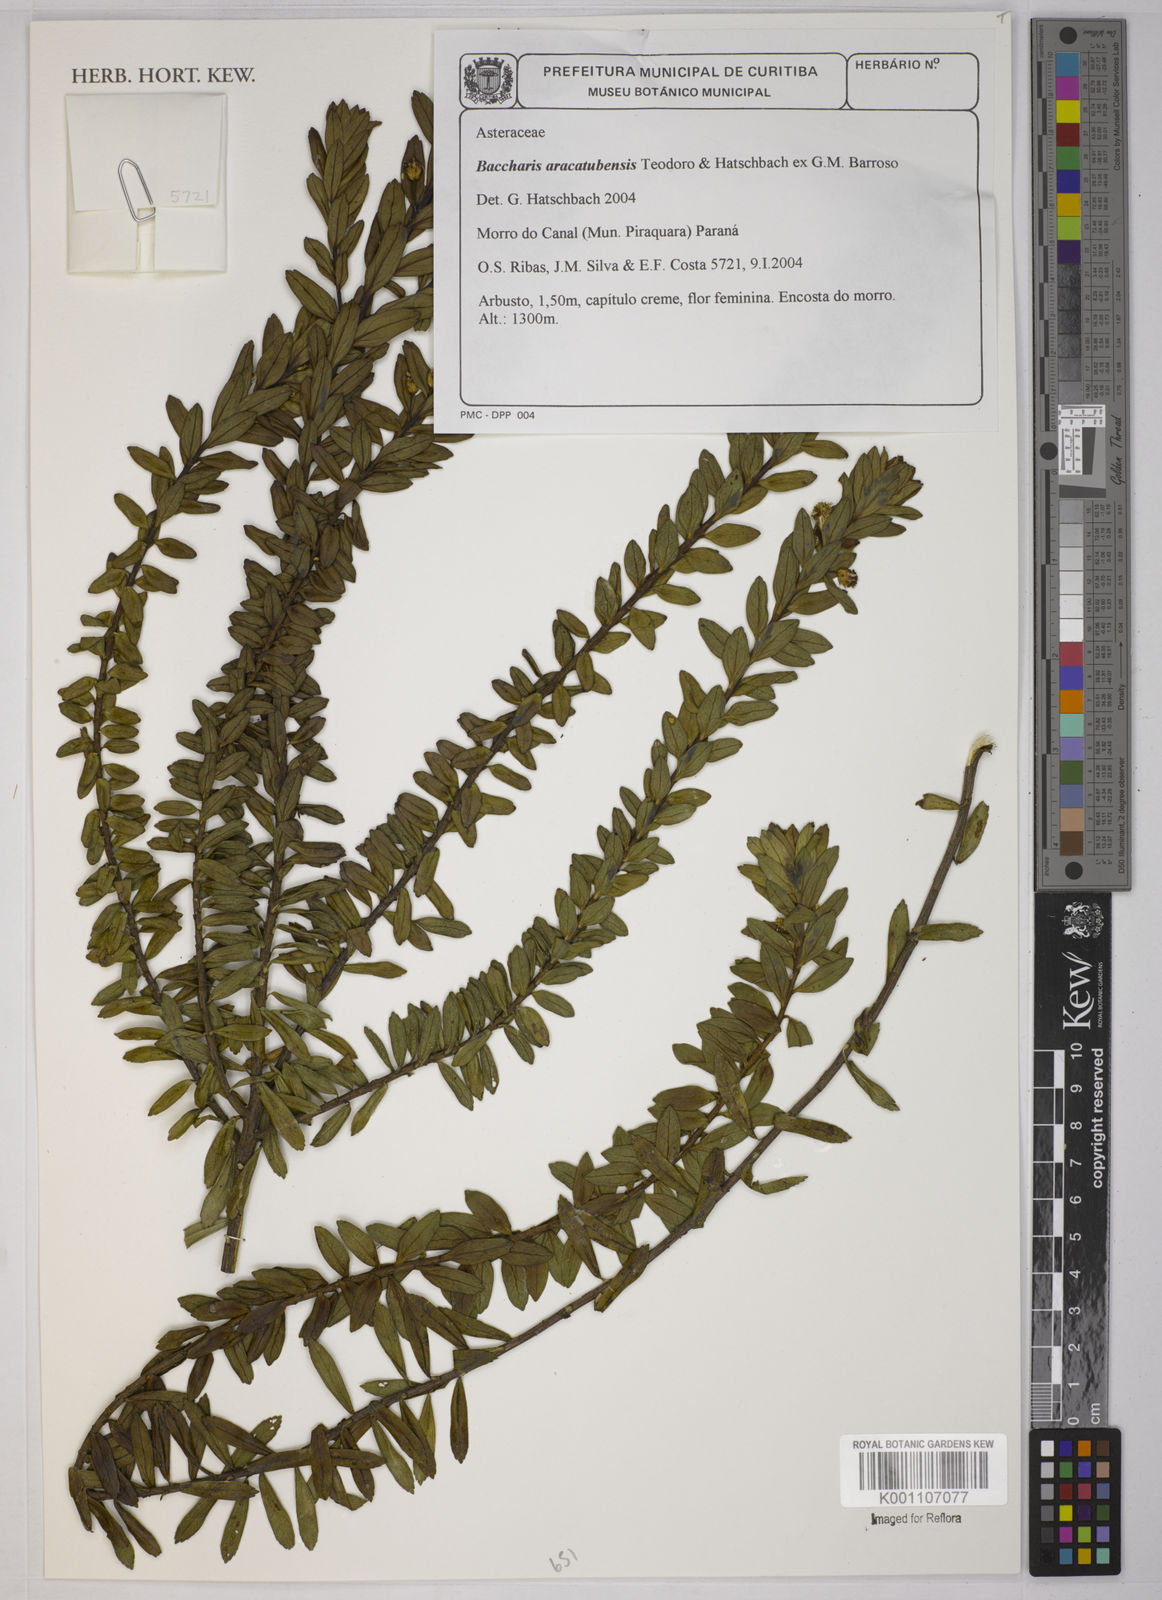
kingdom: Plantae
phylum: Tracheophyta
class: Magnoliopsida
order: Asterales
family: Asteraceae
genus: Baccharis
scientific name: Baccharis aracatubensis
